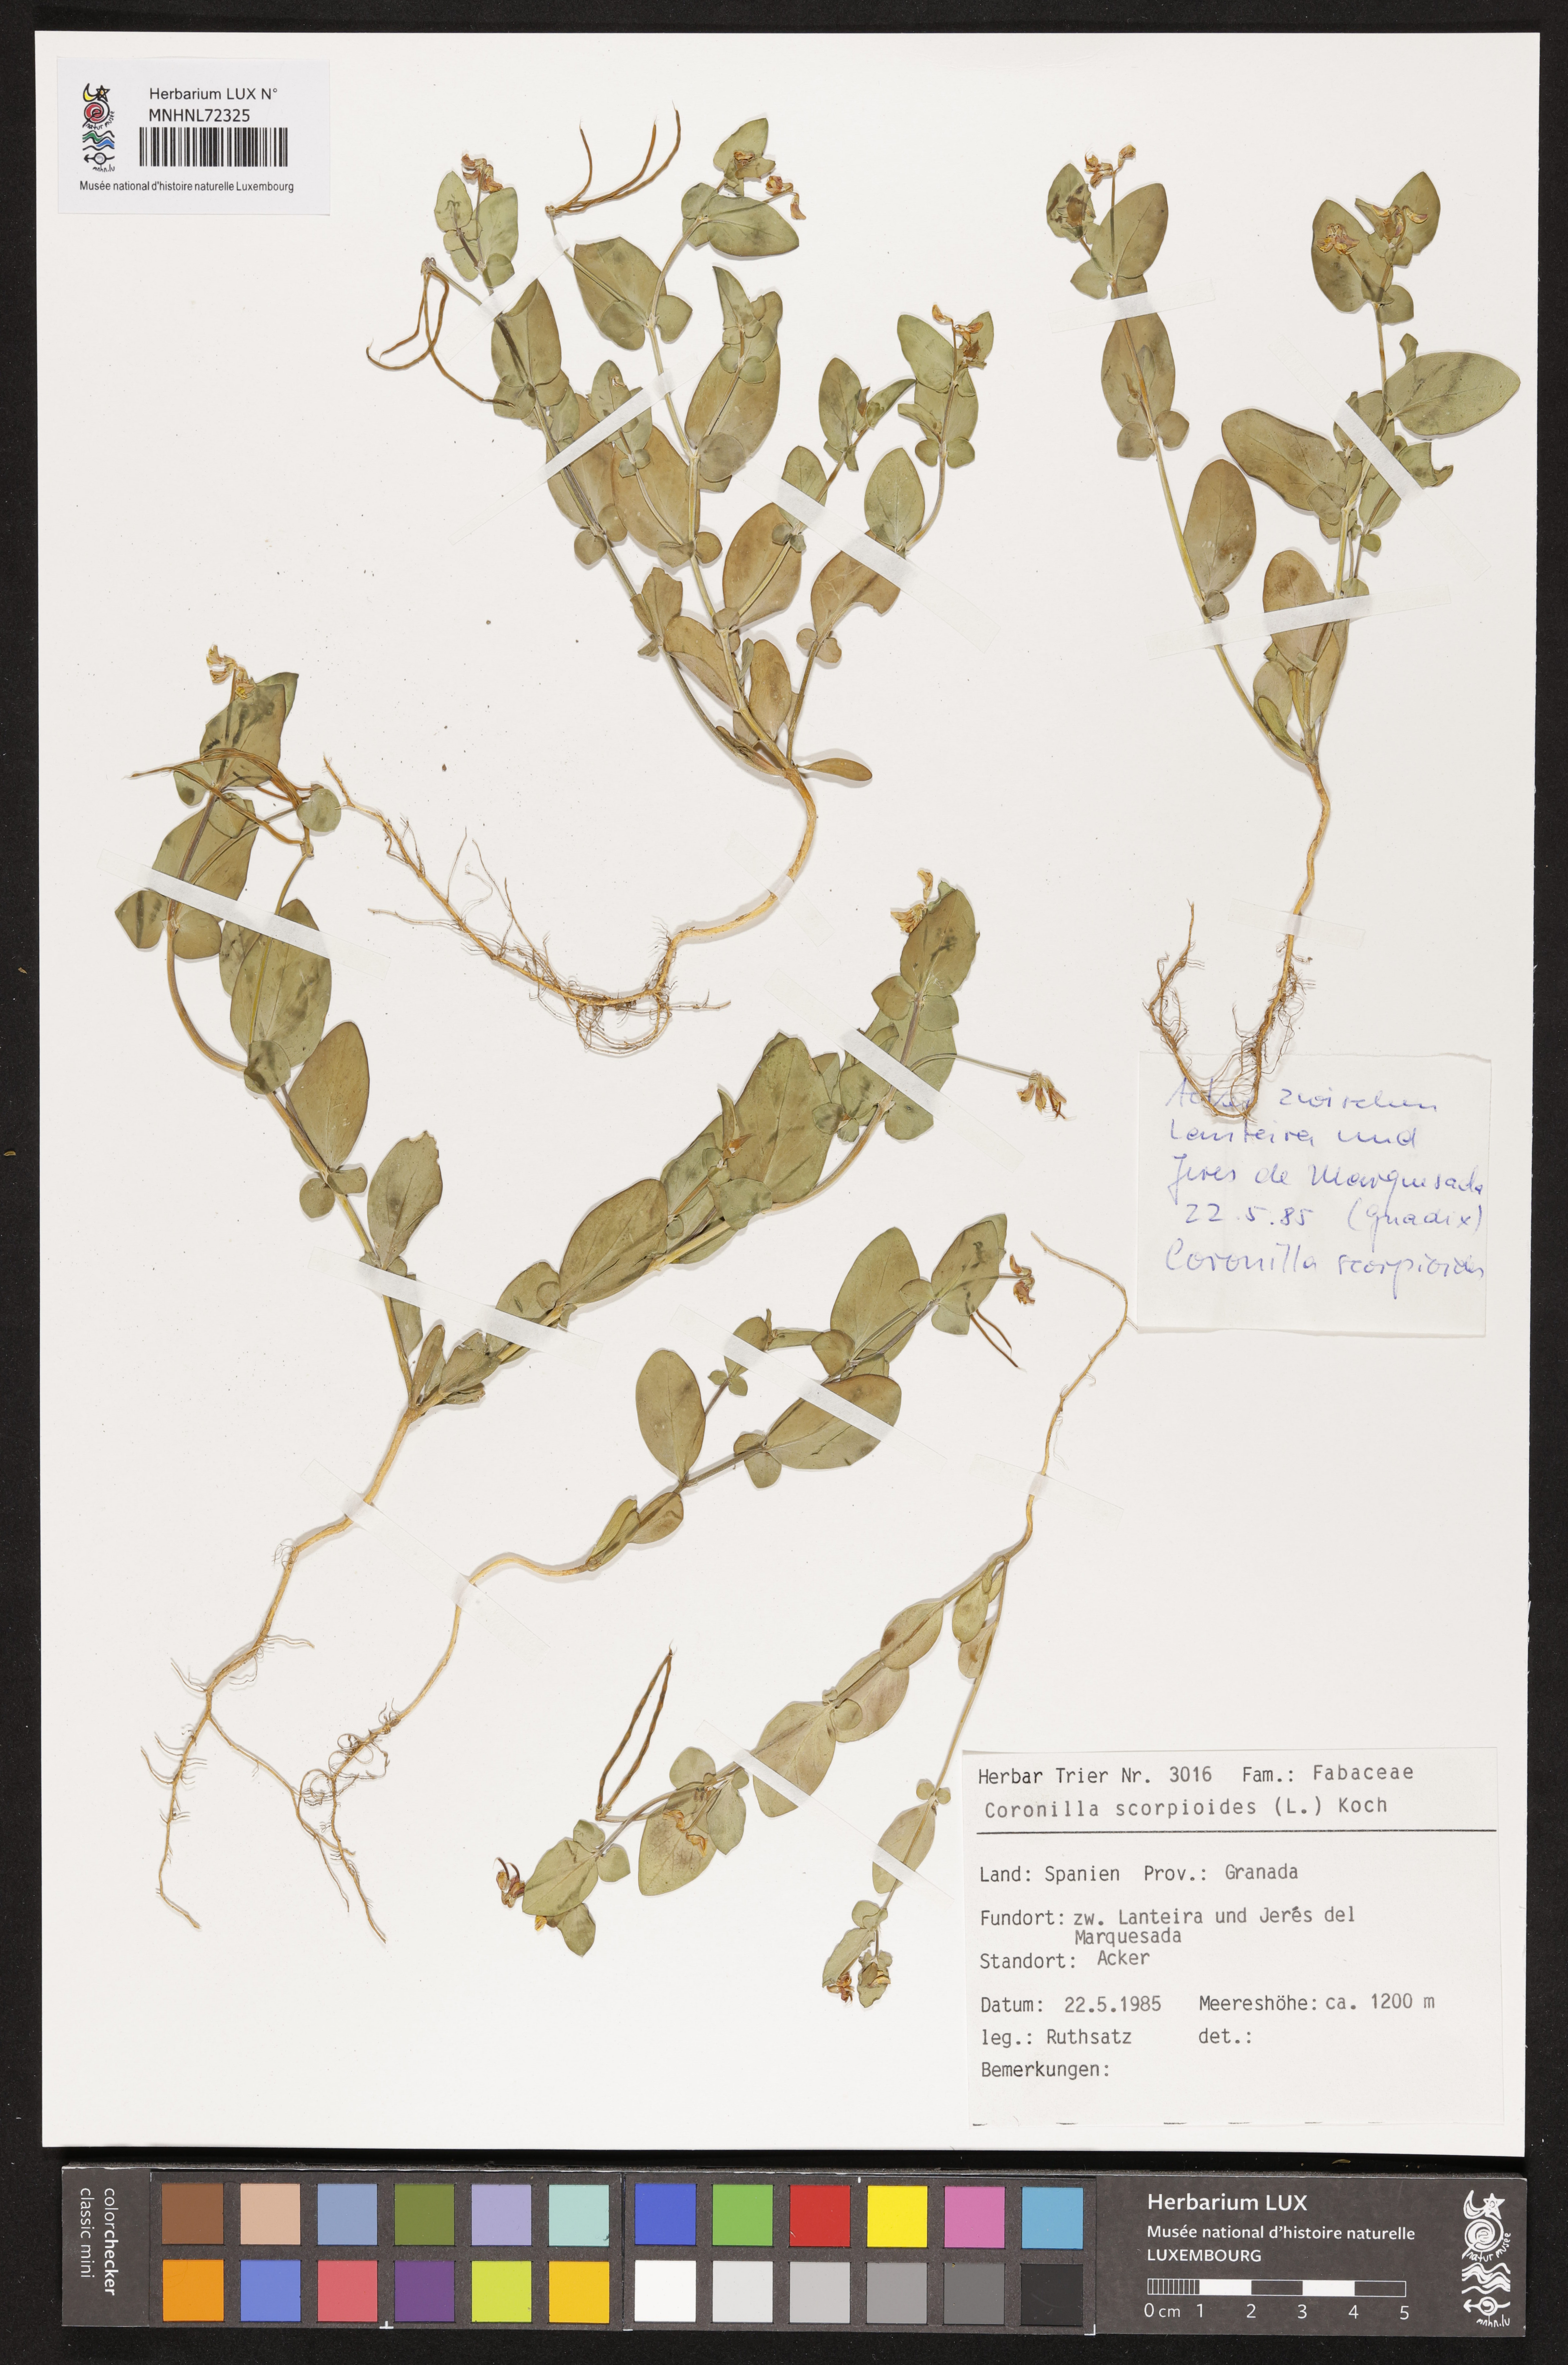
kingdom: Plantae
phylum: Tracheophyta
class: Magnoliopsida
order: Fabales
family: Fabaceae
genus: Coronilla
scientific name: Coronilla scorpioides
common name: Annual scorpion-vetch
